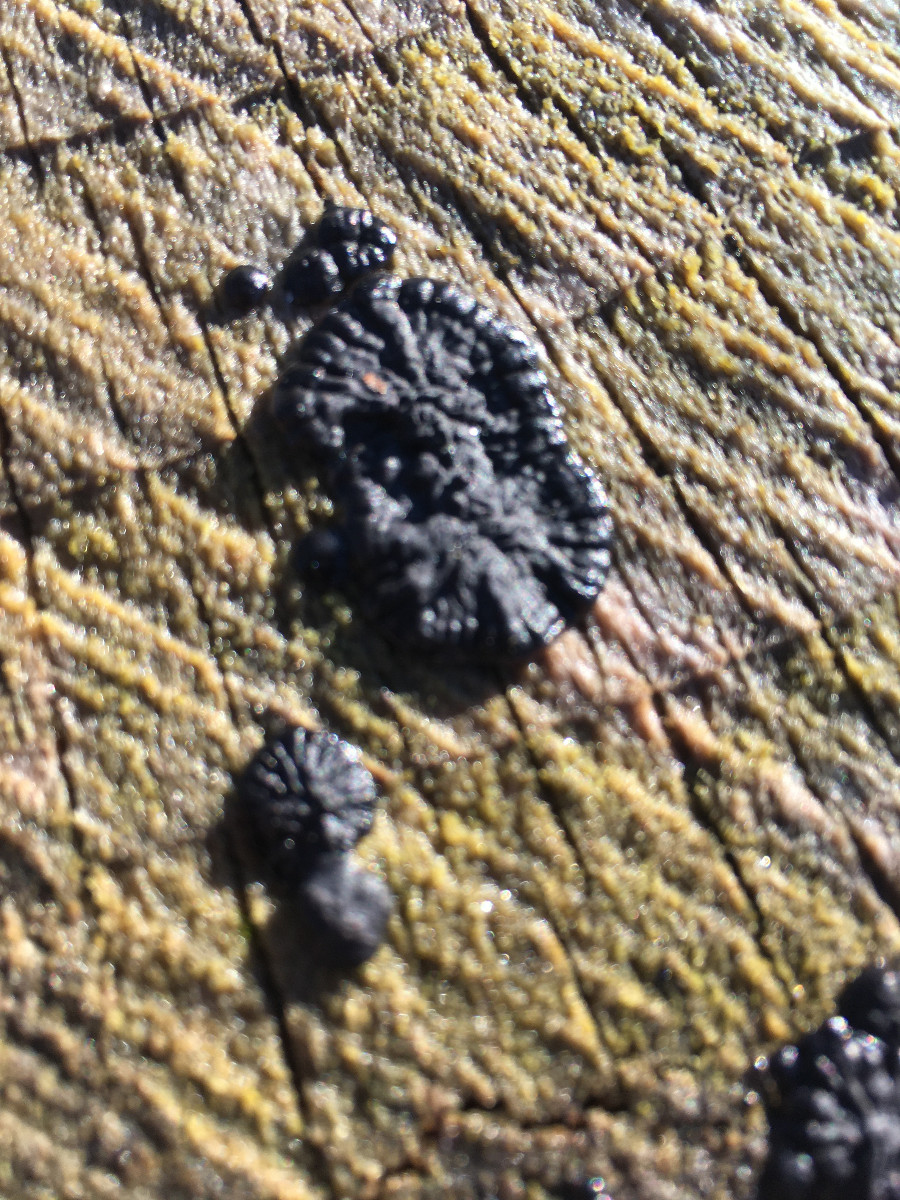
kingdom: Fungi
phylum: Basidiomycota
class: Agaricomycetes
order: Auriculariales
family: Auriculariaceae
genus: Exidia
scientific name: Exidia pithya
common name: gran-bævretop
